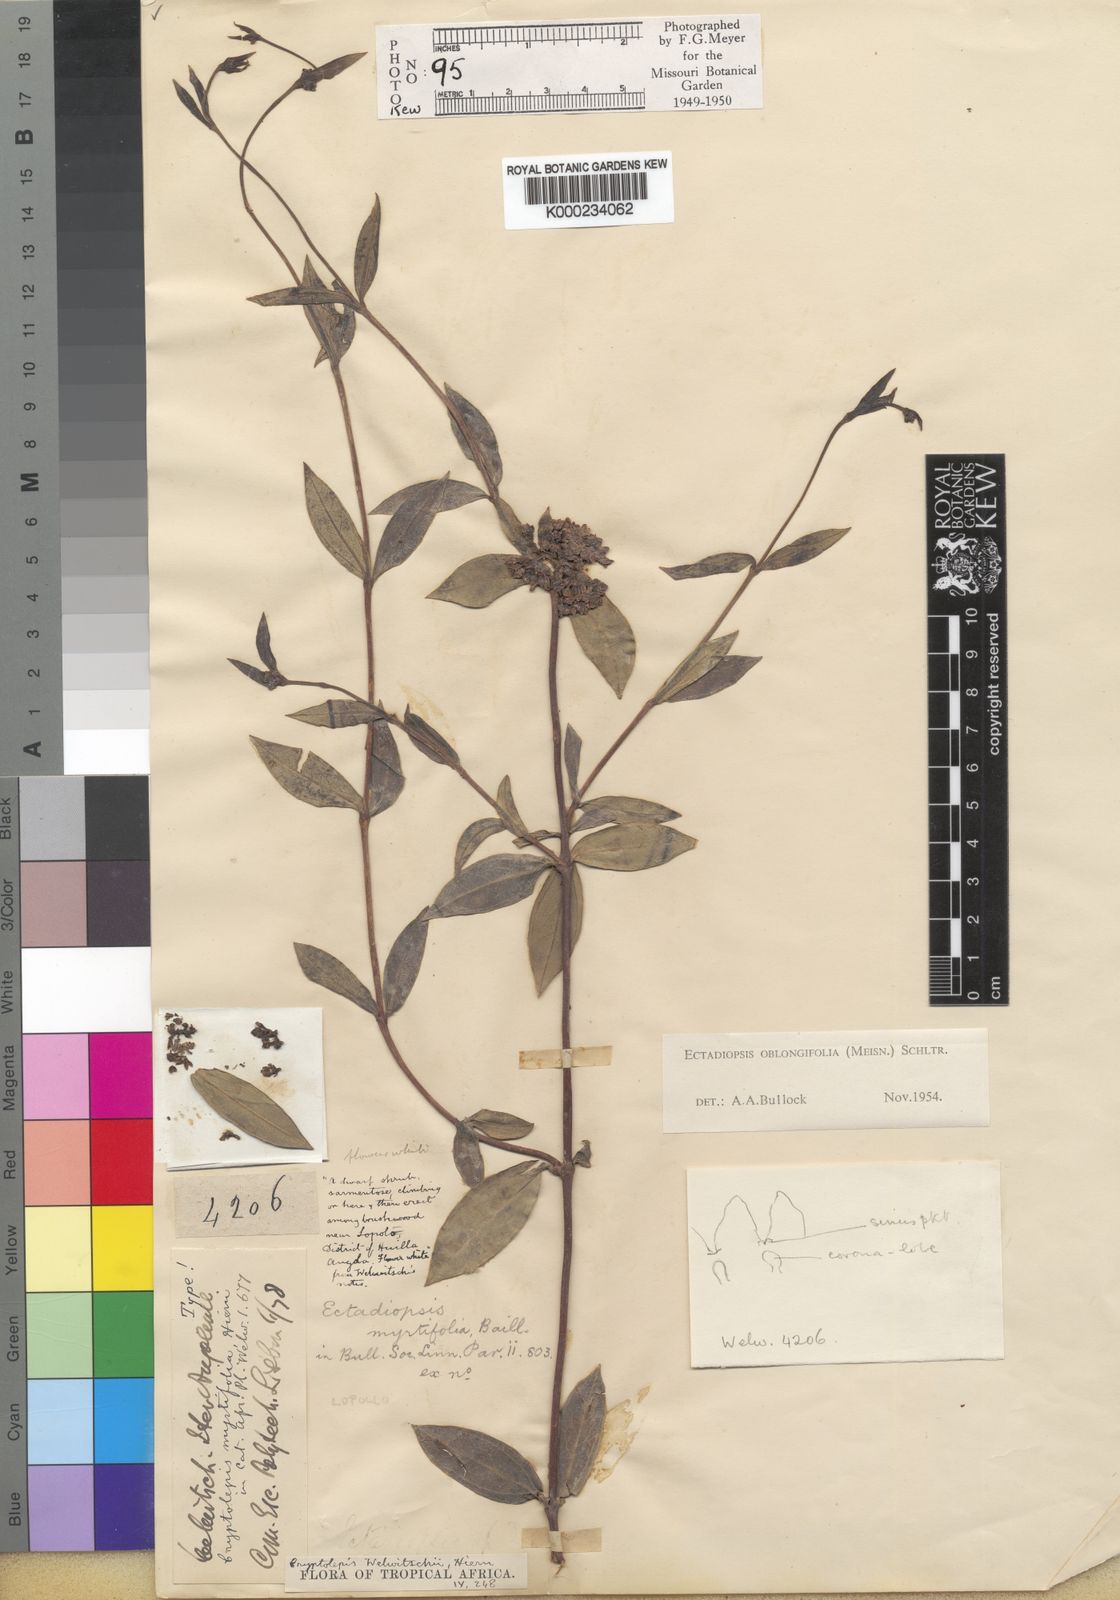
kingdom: Plantae
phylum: Tracheophyta
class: Magnoliopsida
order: Gentianales
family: Apocynaceae
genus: Cryptolepis
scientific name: Cryptolepis oblongifolia
